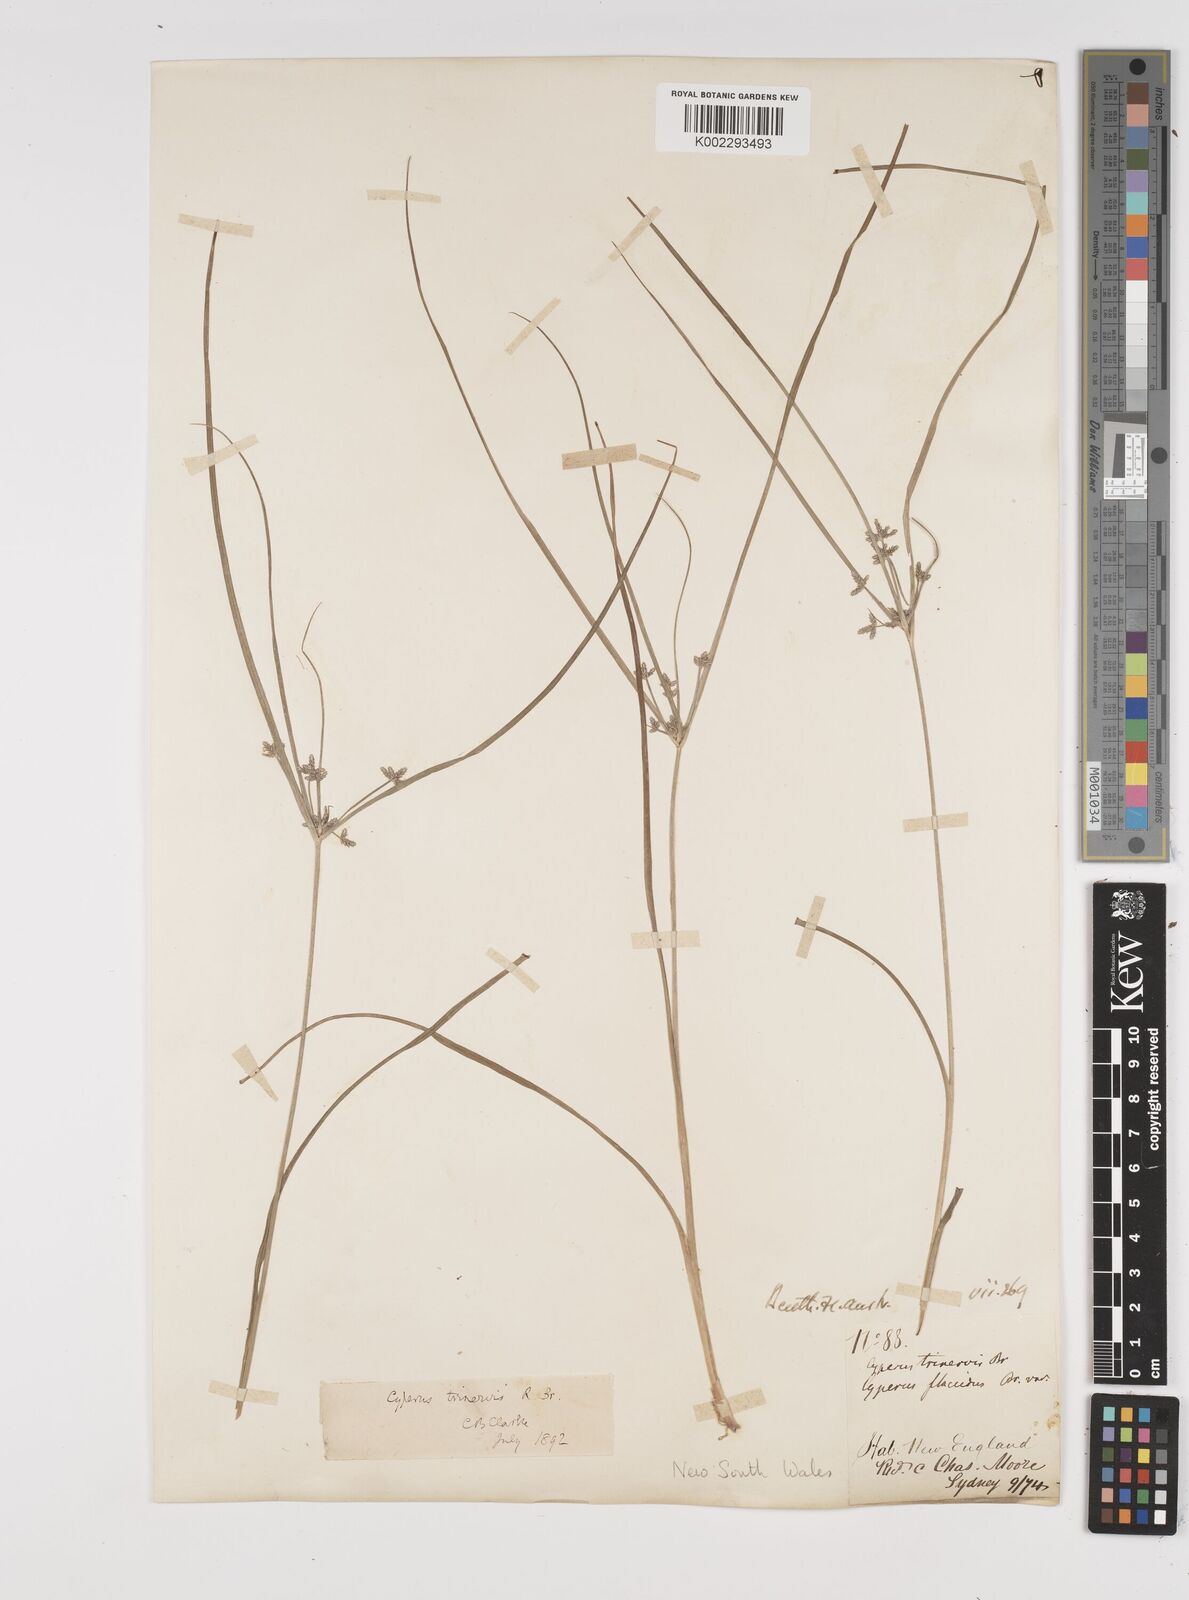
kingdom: Plantae
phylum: Tracheophyta
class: Liliopsida
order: Poales
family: Cyperaceae
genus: Cyperus
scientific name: Cyperus trinervis
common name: Australian flatsedge
